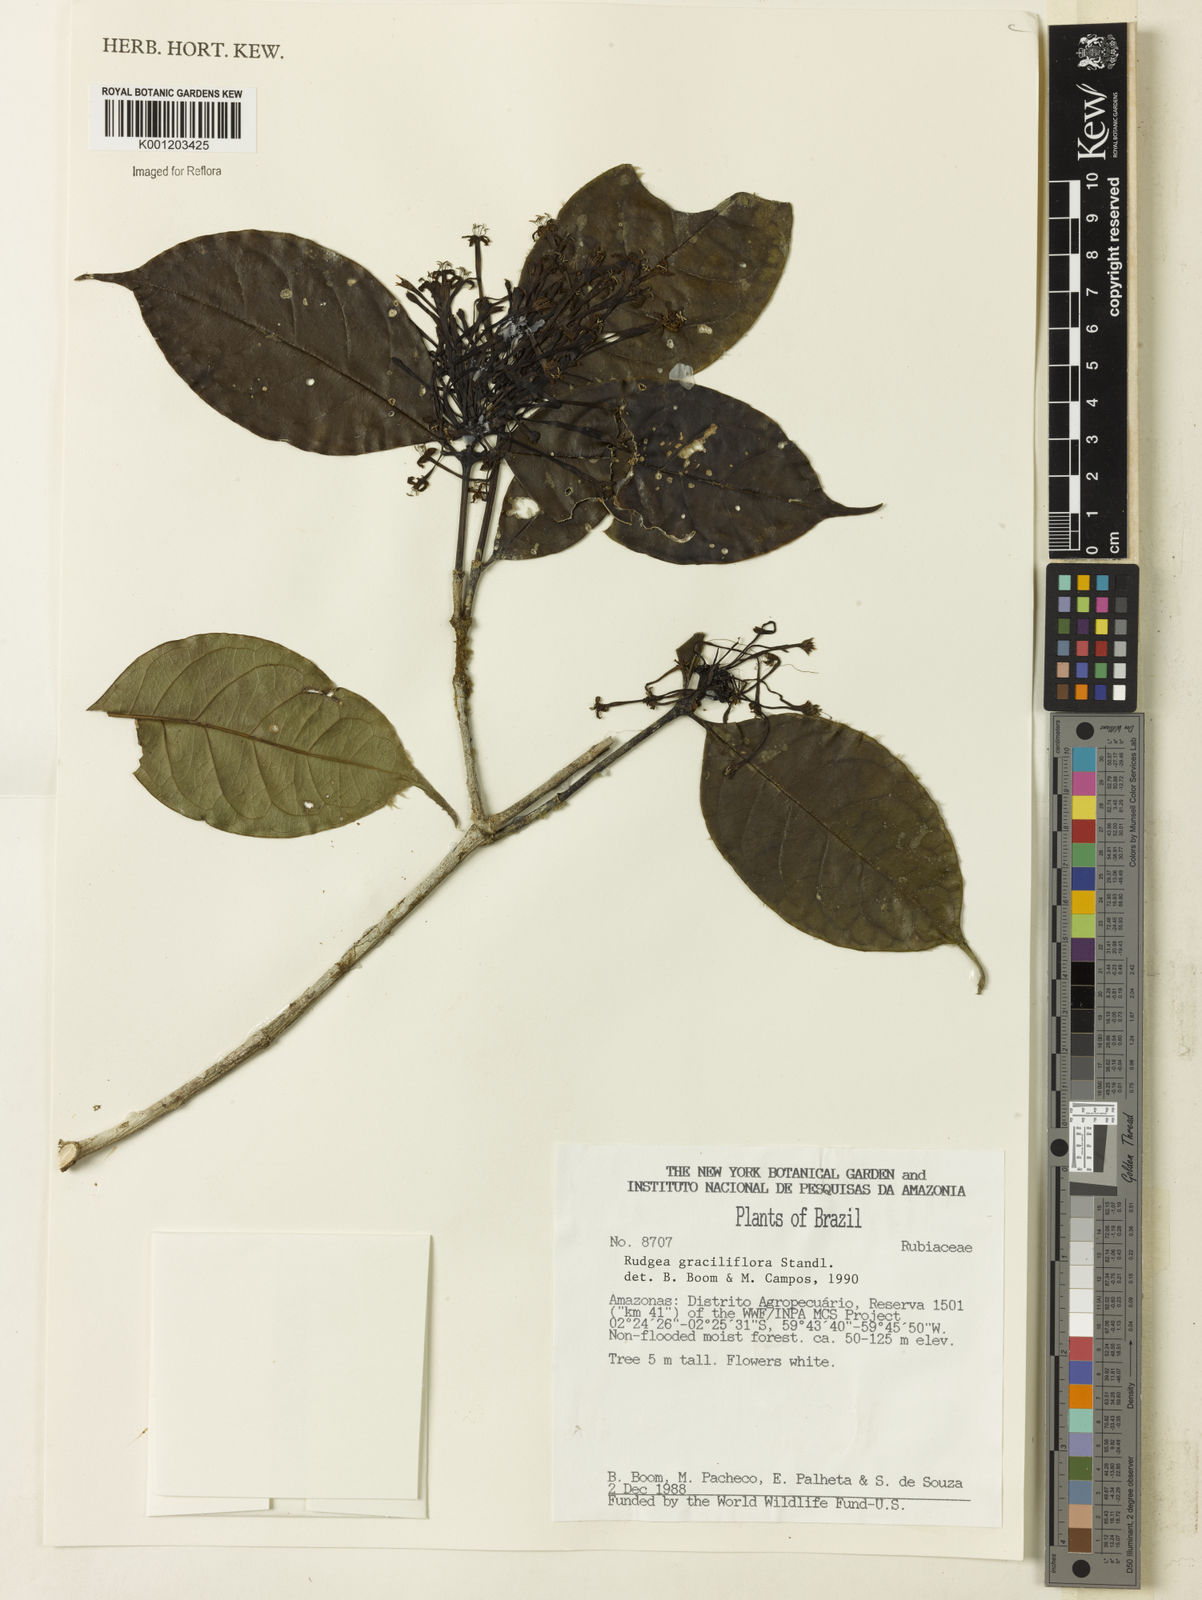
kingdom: Plantae
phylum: Tracheophyta
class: Magnoliopsida
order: Gentianales
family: Rubiaceae
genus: Rudgea
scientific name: Rudgea graciliflora
